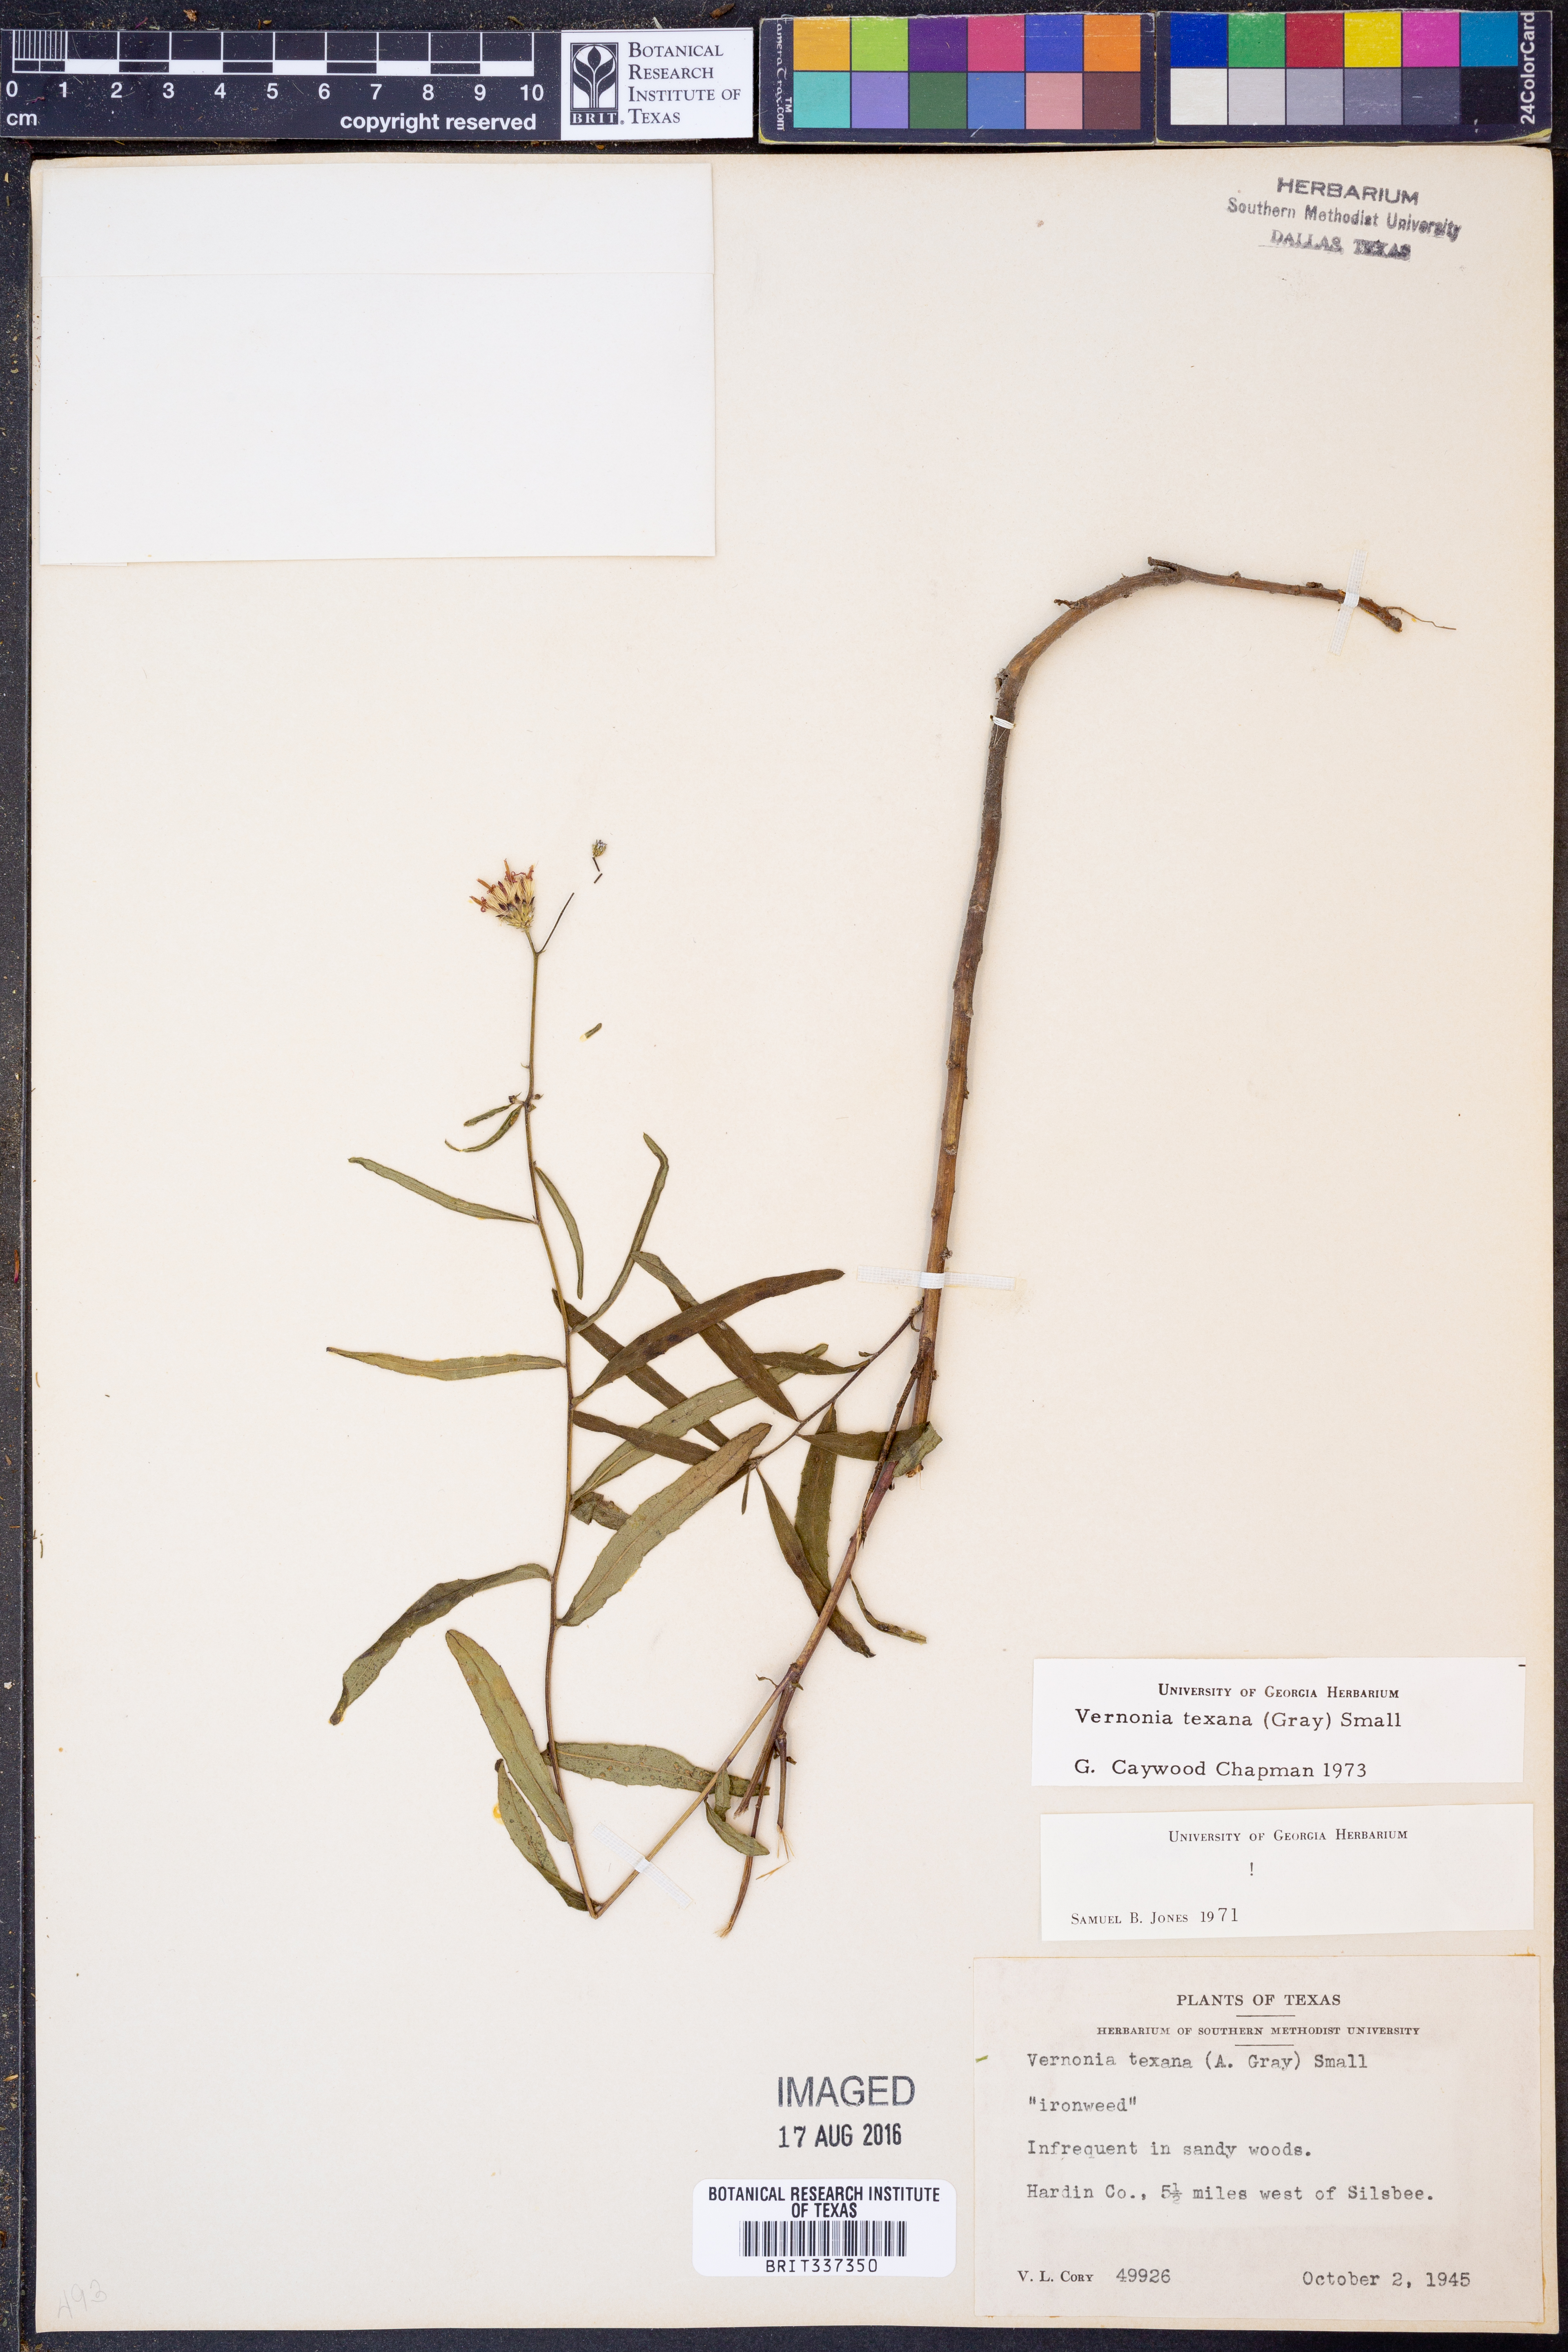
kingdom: Plantae
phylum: Tracheophyta
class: Magnoliopsida
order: Asterales
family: Asteraceae
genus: Vernonia
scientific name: Vernonia texana
